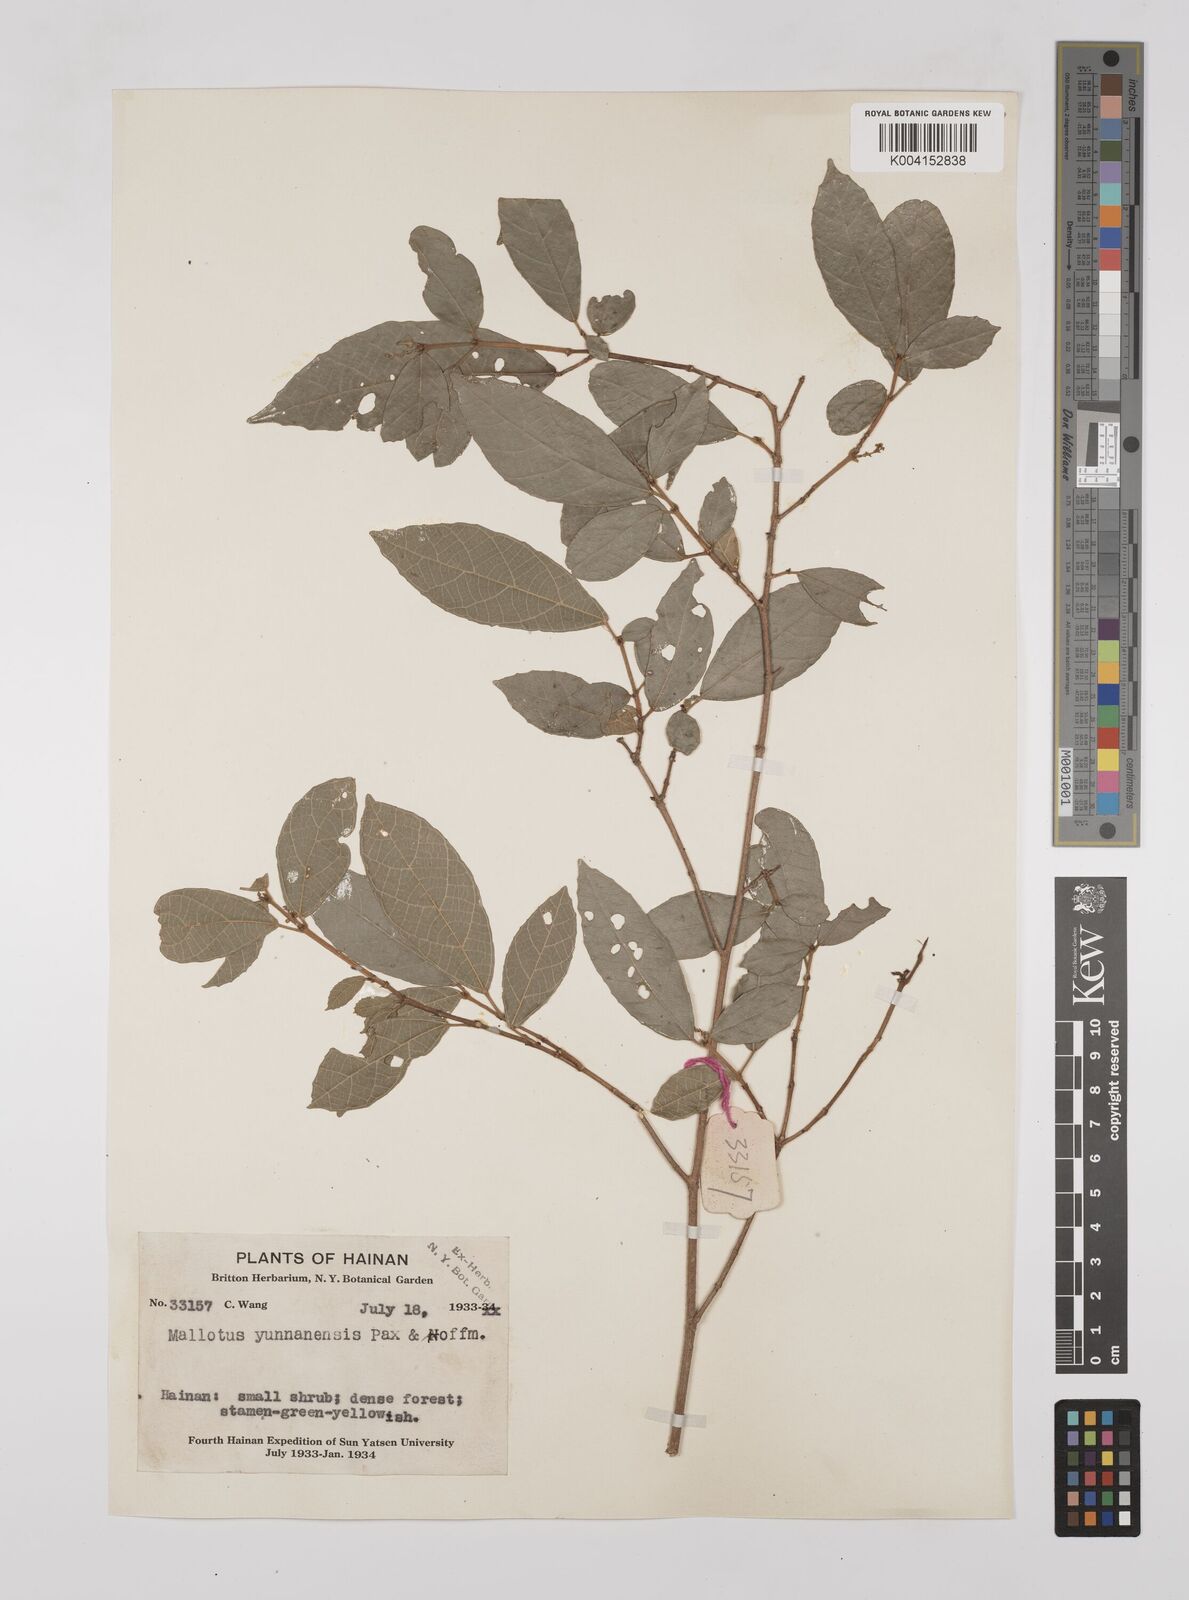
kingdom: Plantae
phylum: Tracheophyta
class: Magnoliopsida
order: Malpighiales
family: Euphorbiaceae
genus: Mallotus
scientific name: Mallotus yunnanensis
